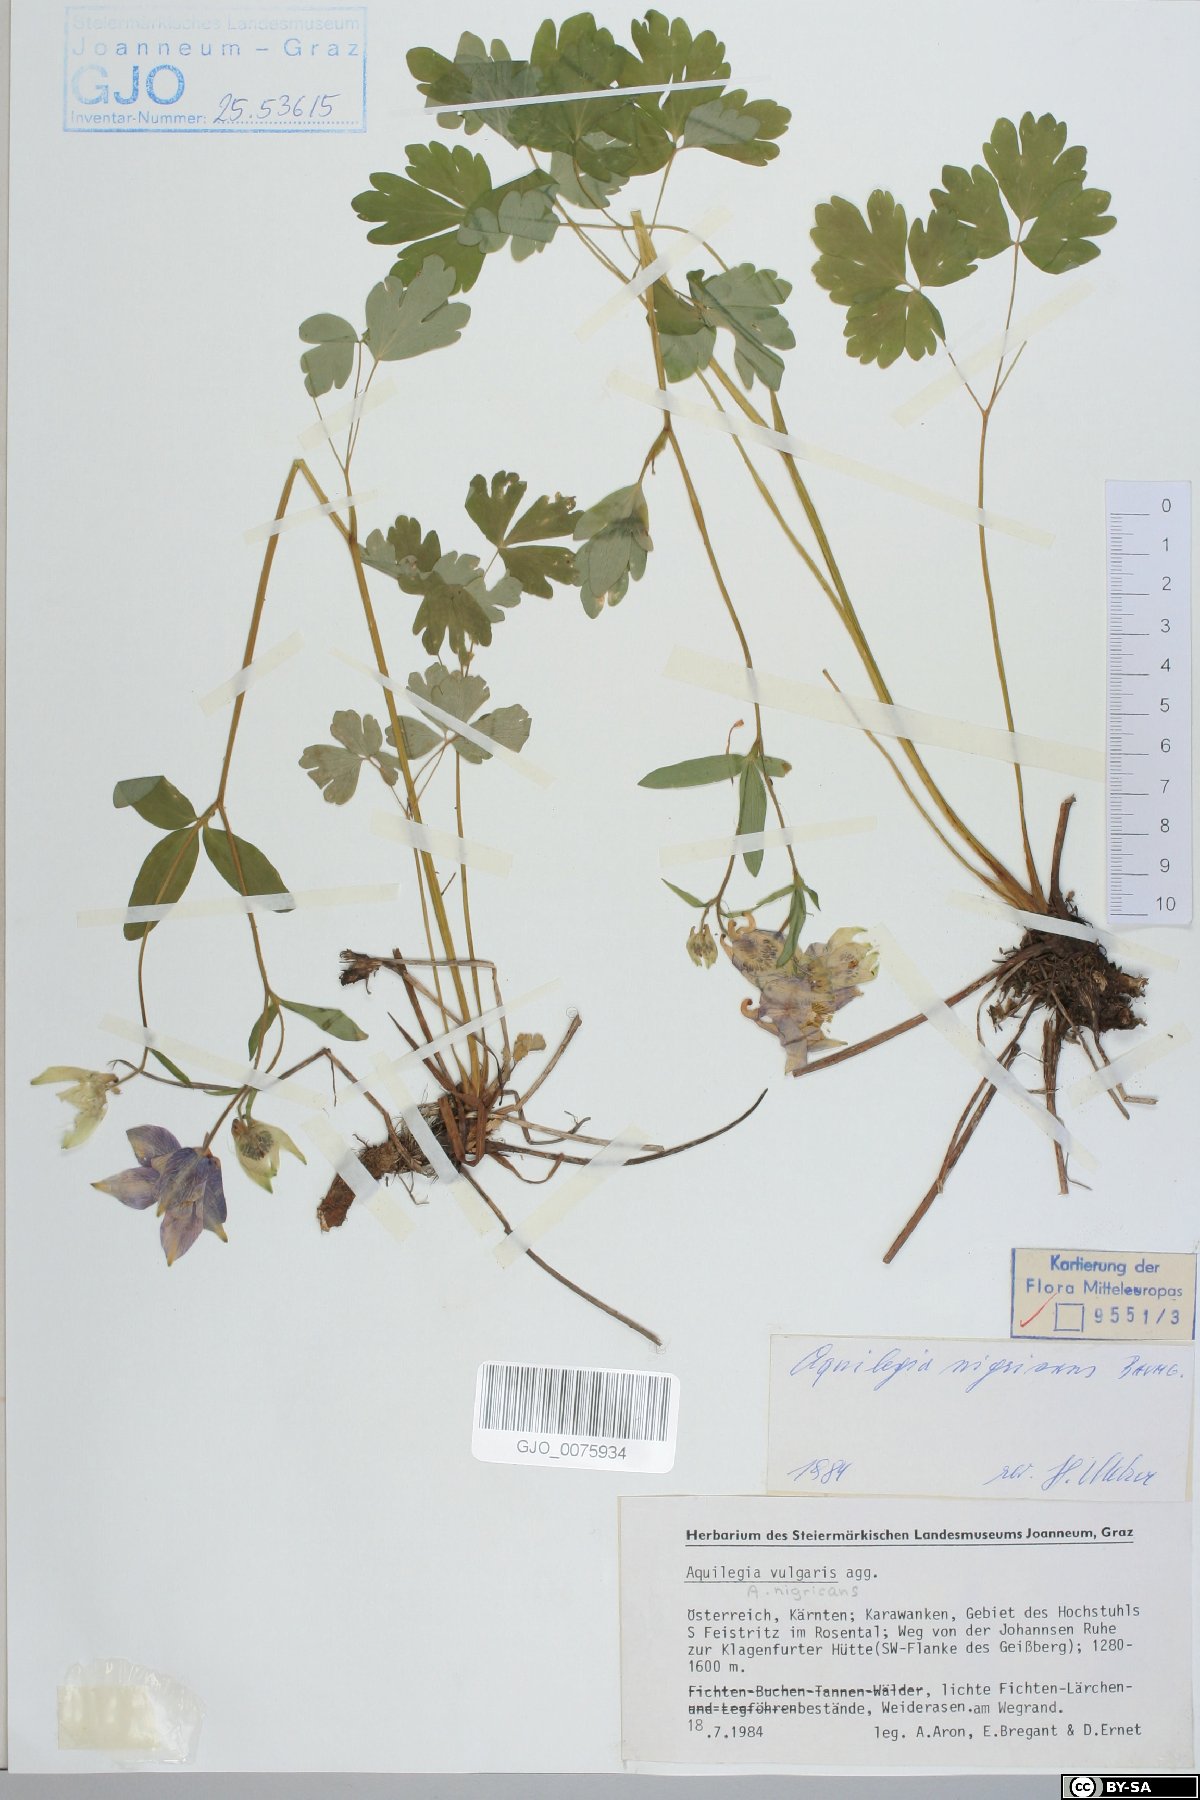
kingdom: Plantae
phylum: Tracheophyta
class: Magnoliopsida
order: Ranunculales
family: Ranunculaceae
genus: Aquilegia
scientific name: Aquilegia nigricans
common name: Bulgarian columbine
